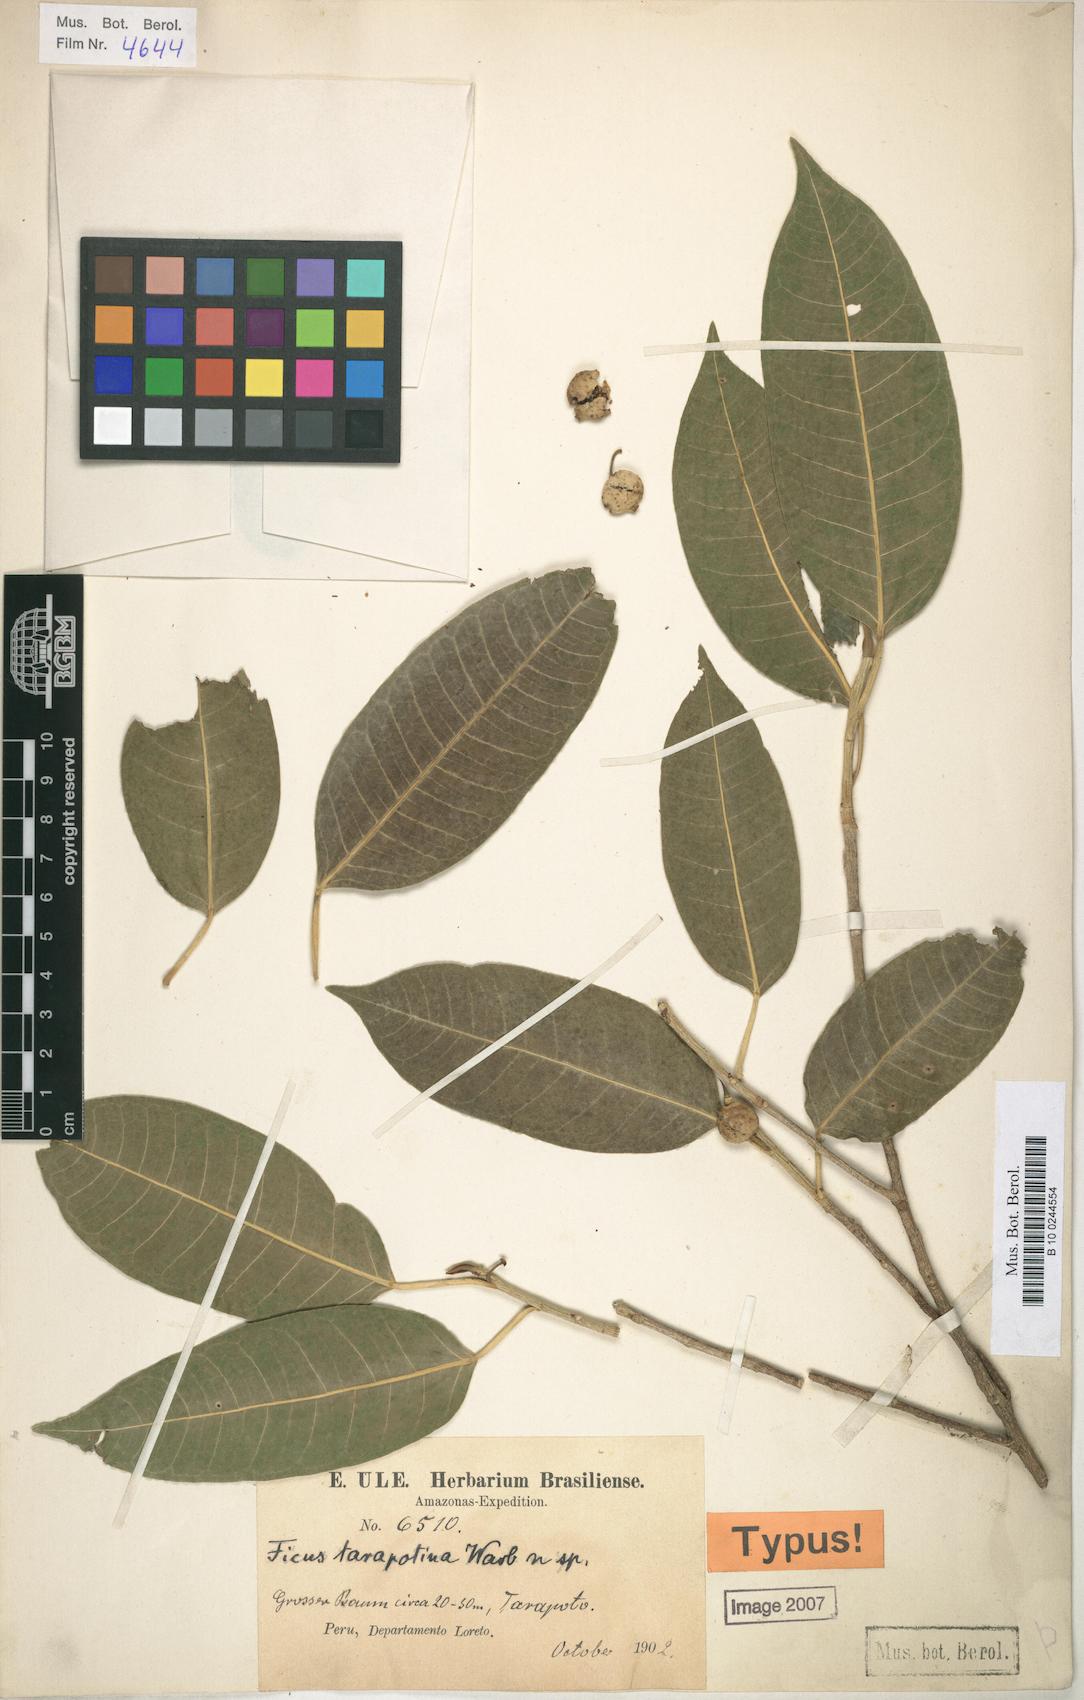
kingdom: Plantae
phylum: Tracheophyta
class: Magnoliopsida
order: Rosales
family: Moraceae
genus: Ficus
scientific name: Ficus pertusa
